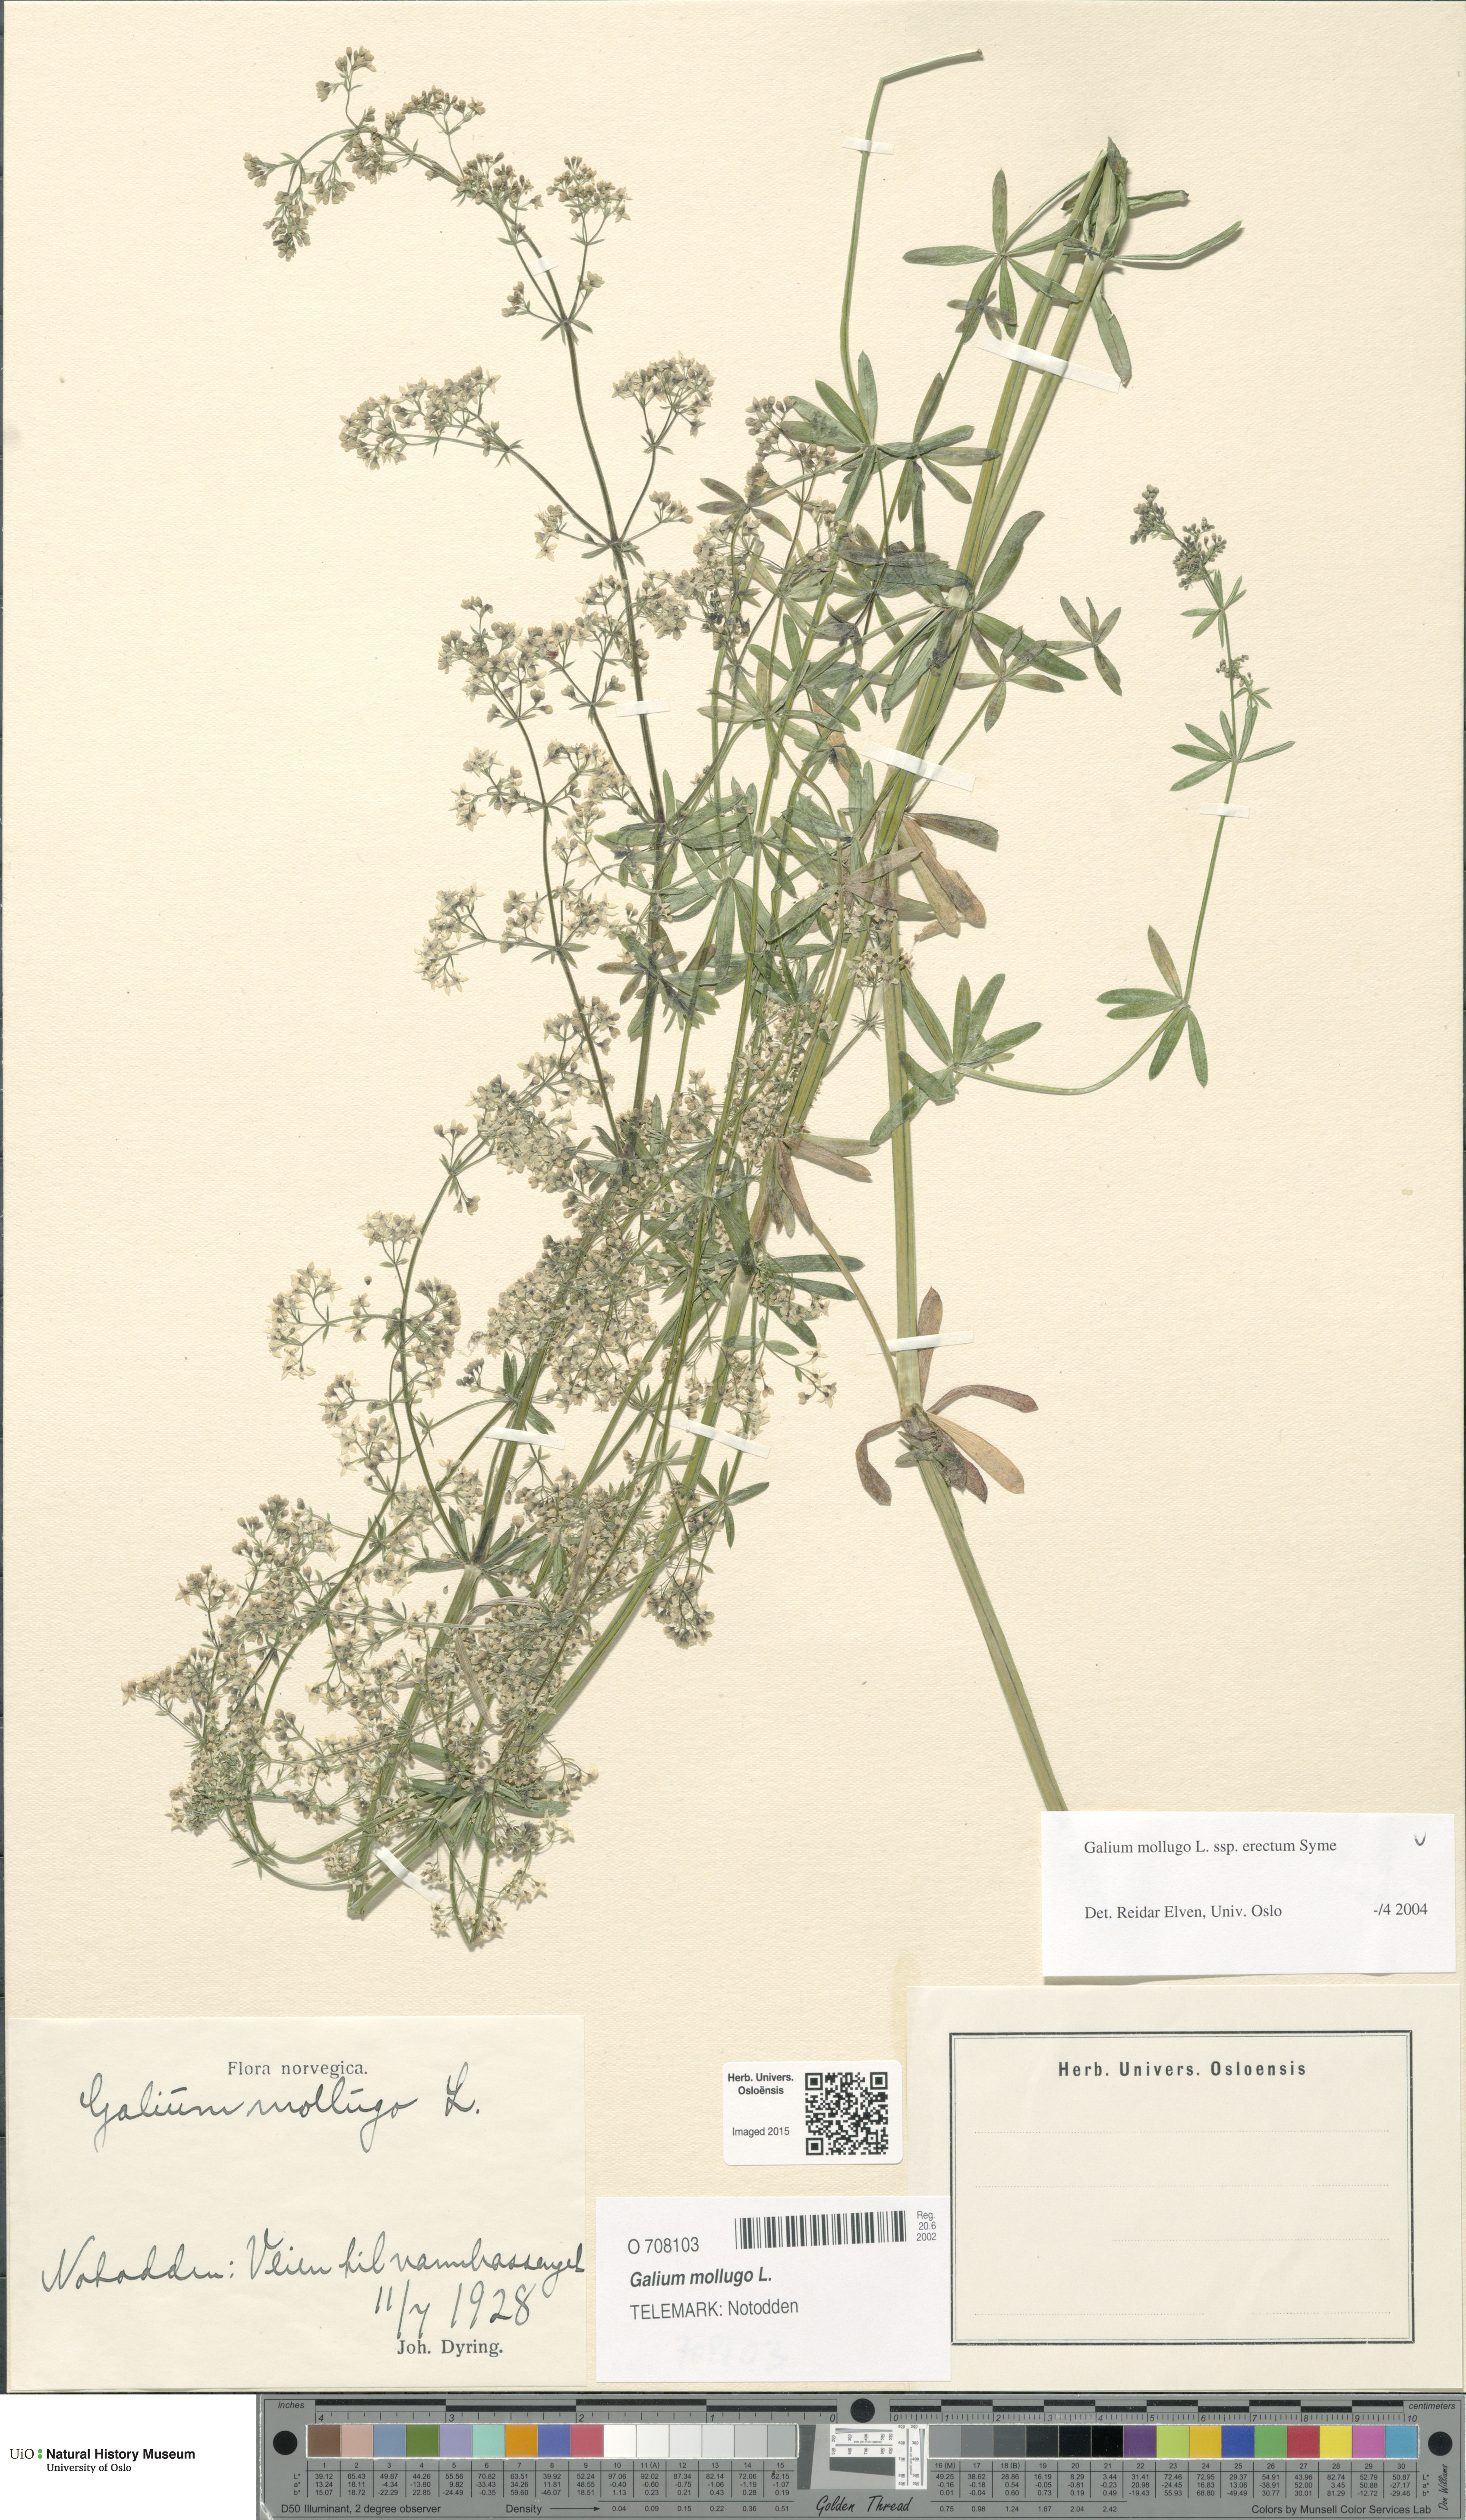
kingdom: Plantae
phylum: Tracheophyta
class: Magnoliopsida
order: Gentianales
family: Rubiaceae
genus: Galium
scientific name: Galium album
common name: White bedstraw
